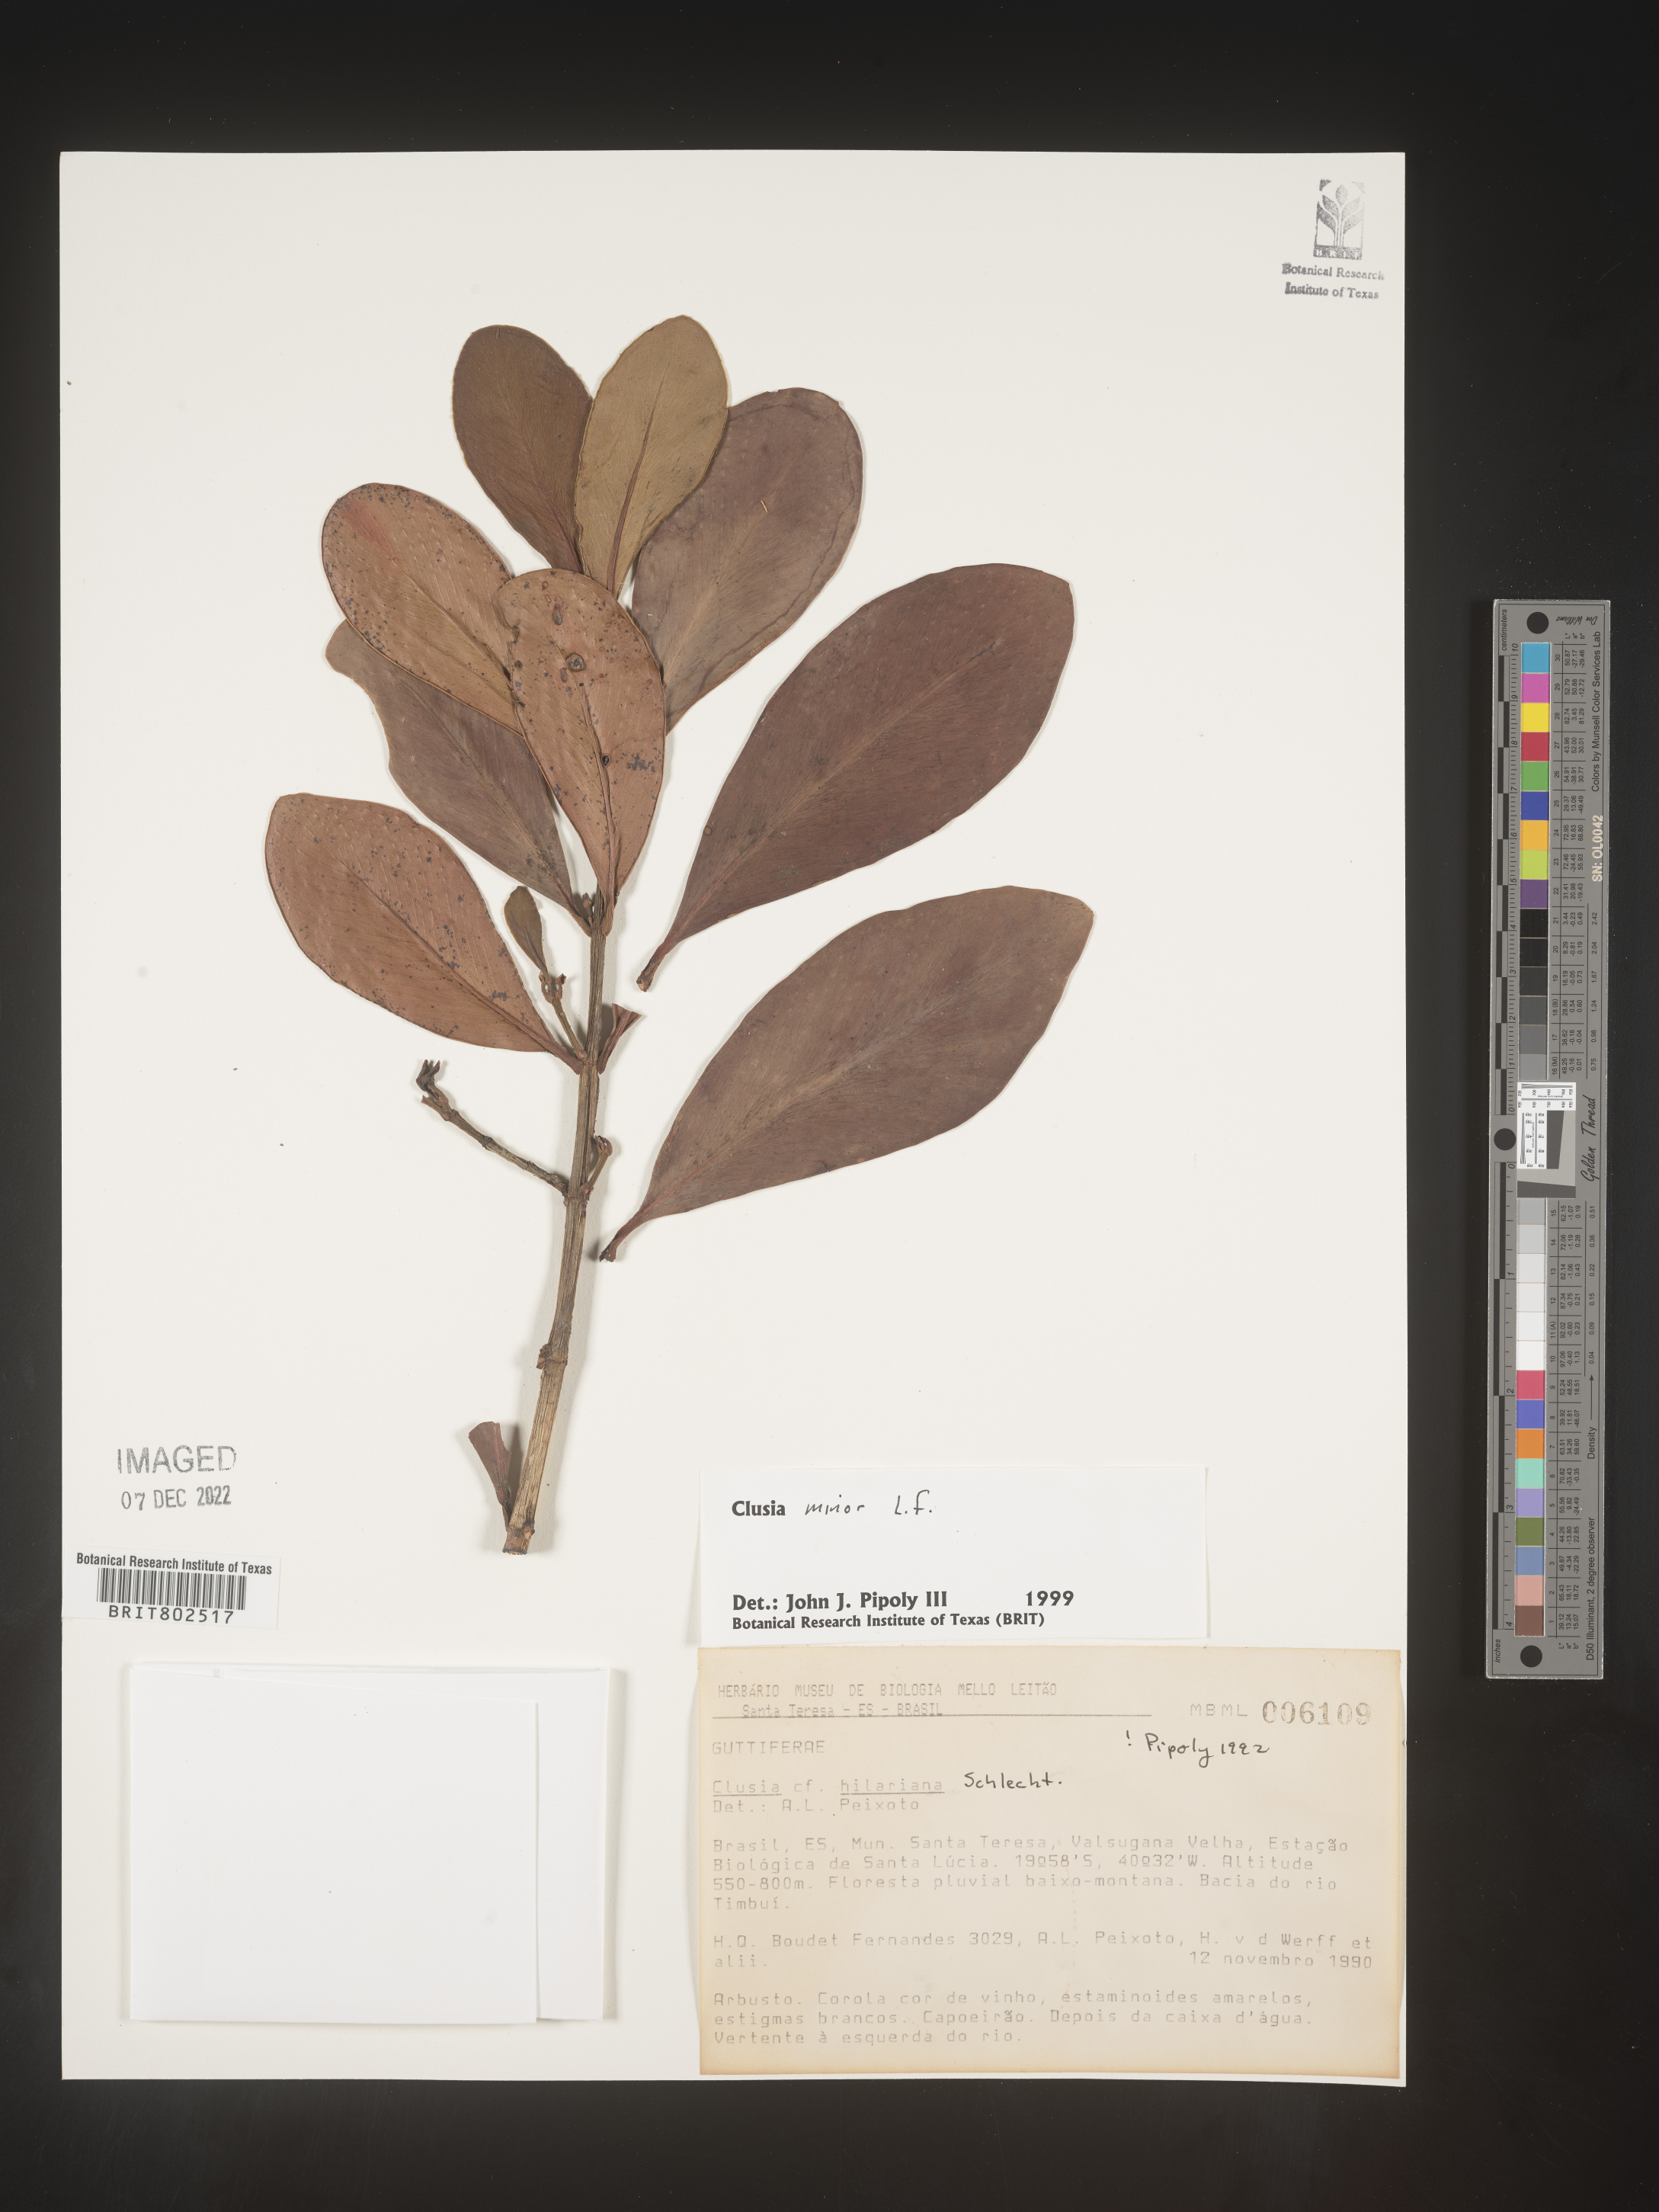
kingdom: Plantae
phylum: Tracheophyta
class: Magnoliopsida
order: Malpighiales
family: Clusiaceae
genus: Clusia
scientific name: Clusia minor
